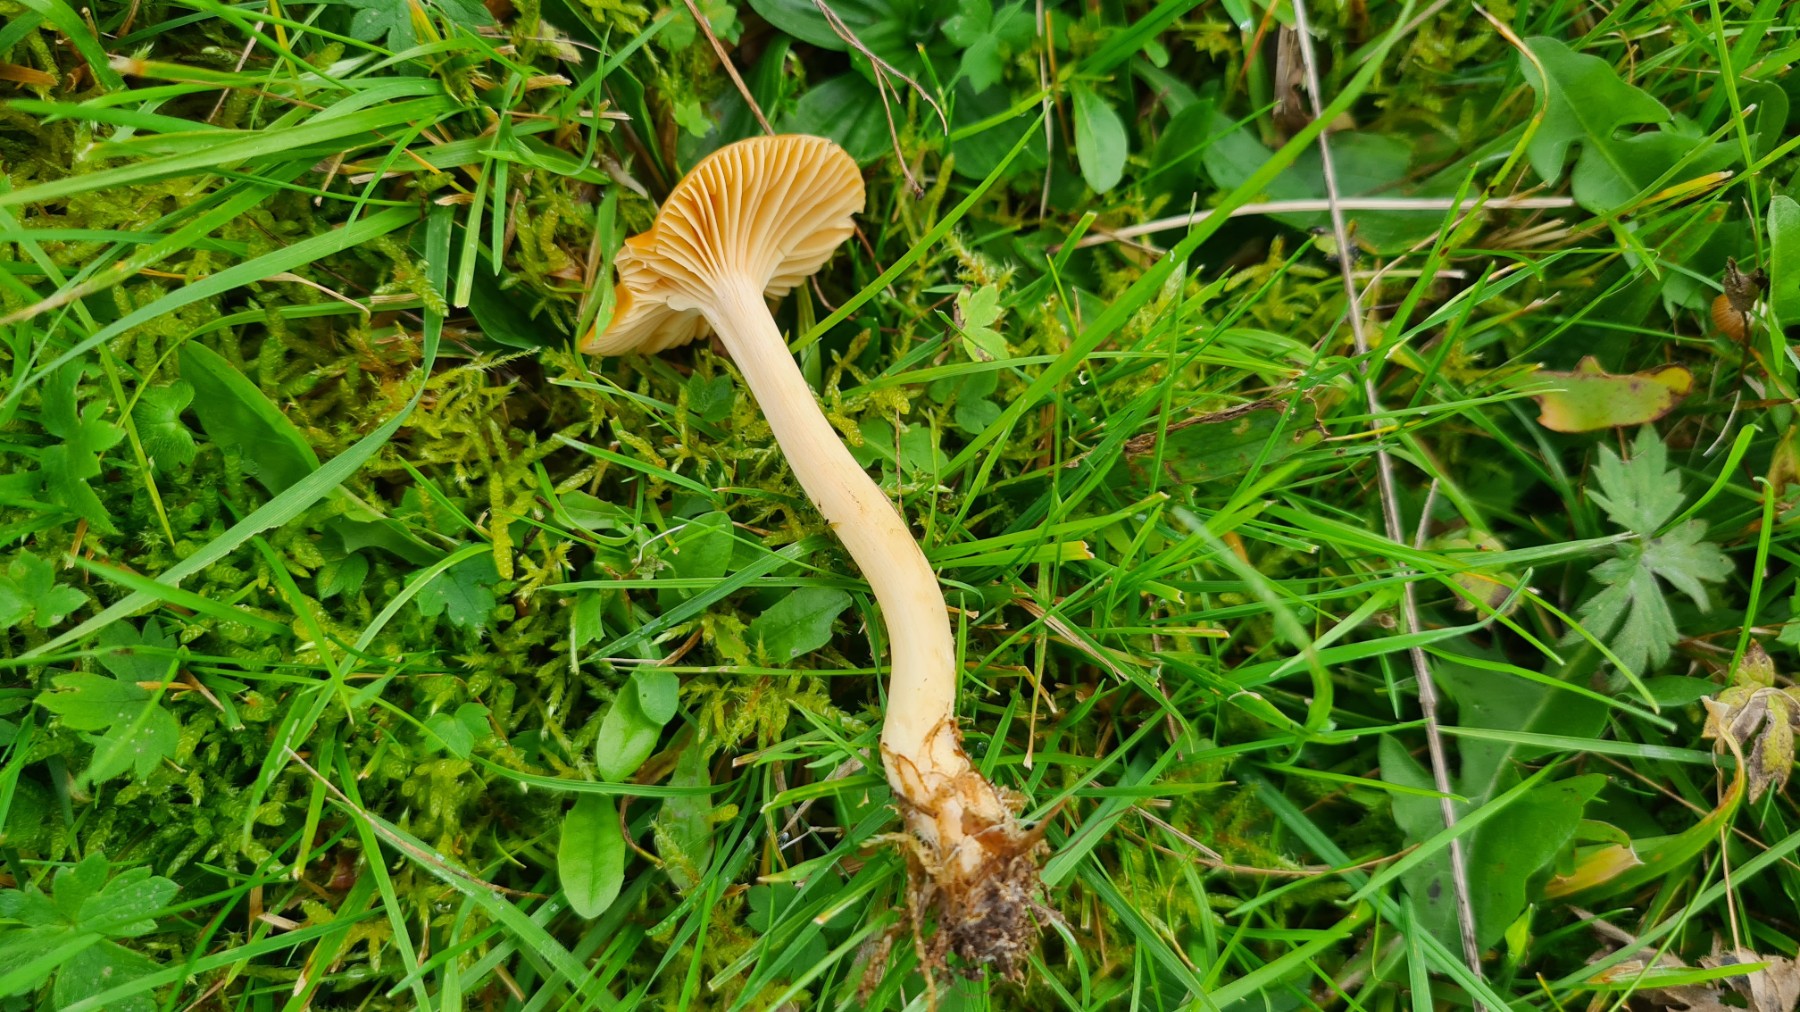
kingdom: Fungi
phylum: Basidiomycota
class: Agaricomycetes
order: Agaricales
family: Hygrophoraceae
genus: Cuphophyllus
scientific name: Cuphophyllus pratensis
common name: eng-vokshat
